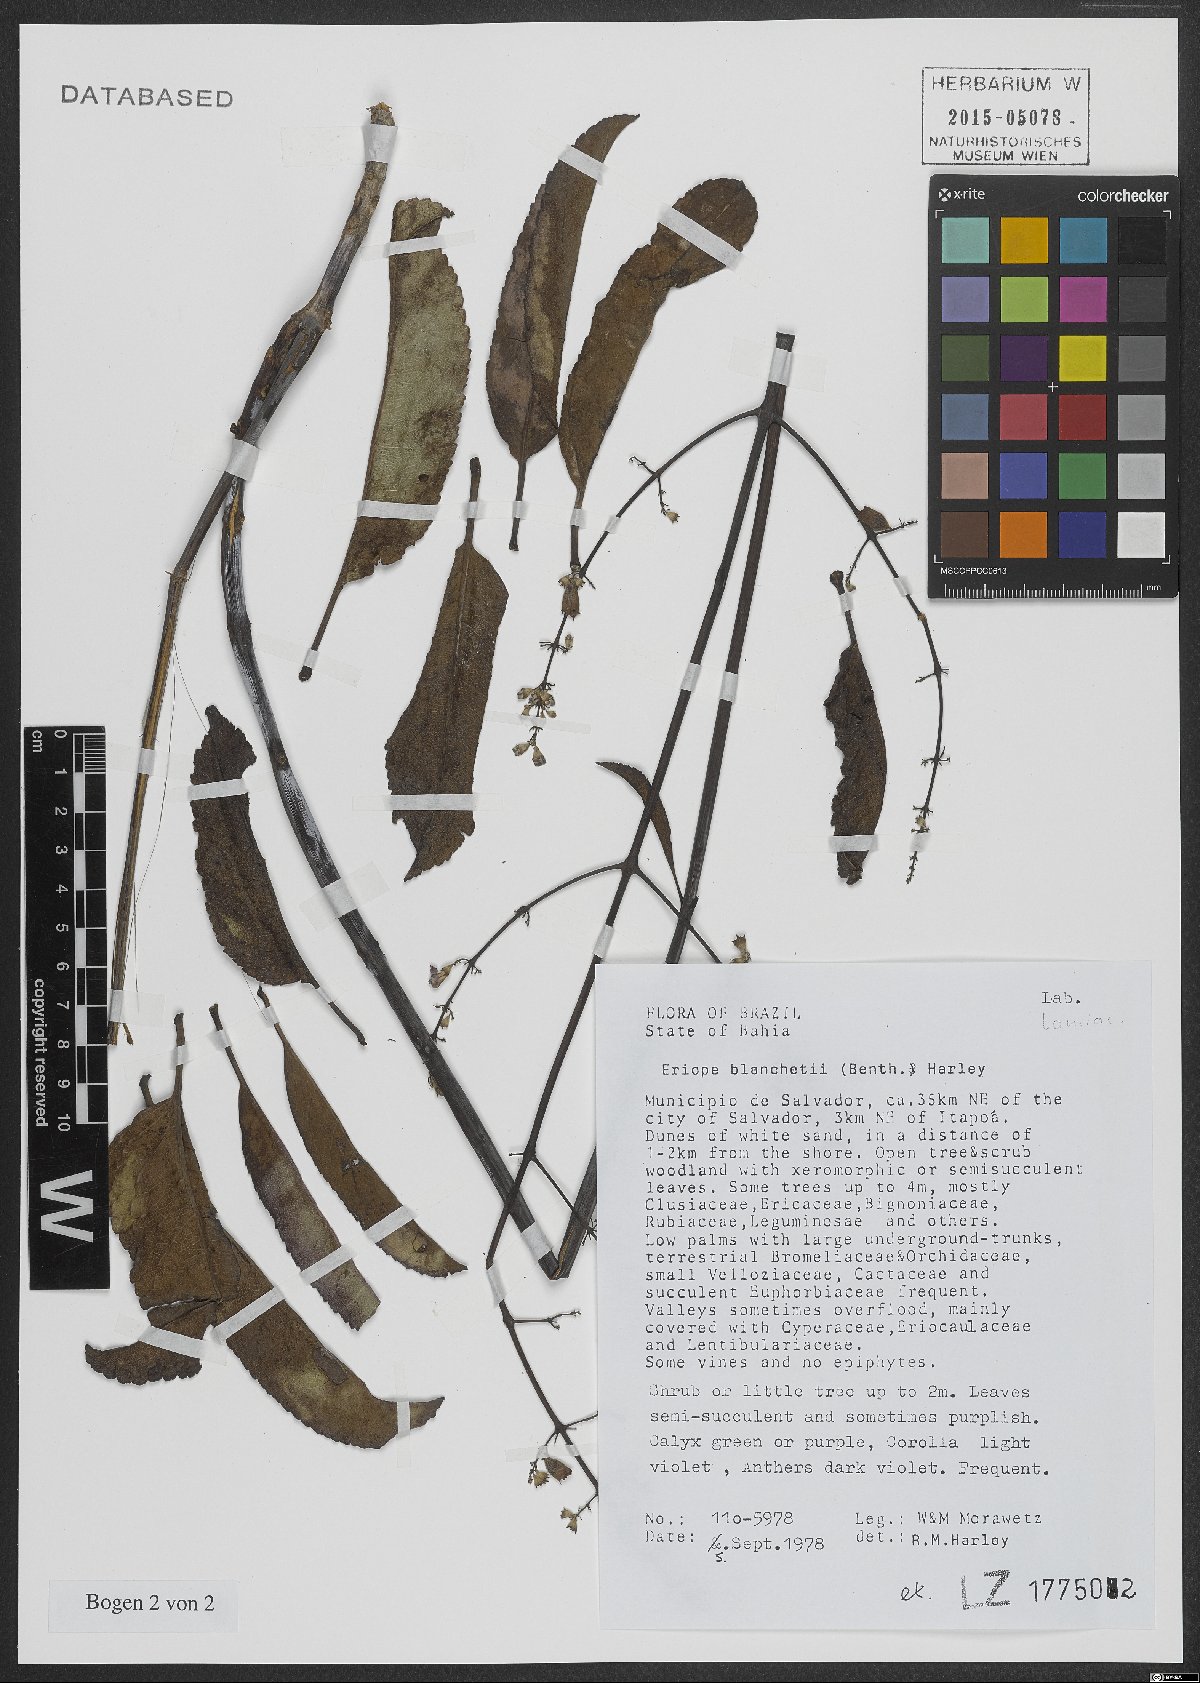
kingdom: Plantae
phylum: Tracheophyta
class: Magnoliopsida
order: Lamiales
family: Lamiaceae
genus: Eriope
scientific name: Eriope blanchetii
